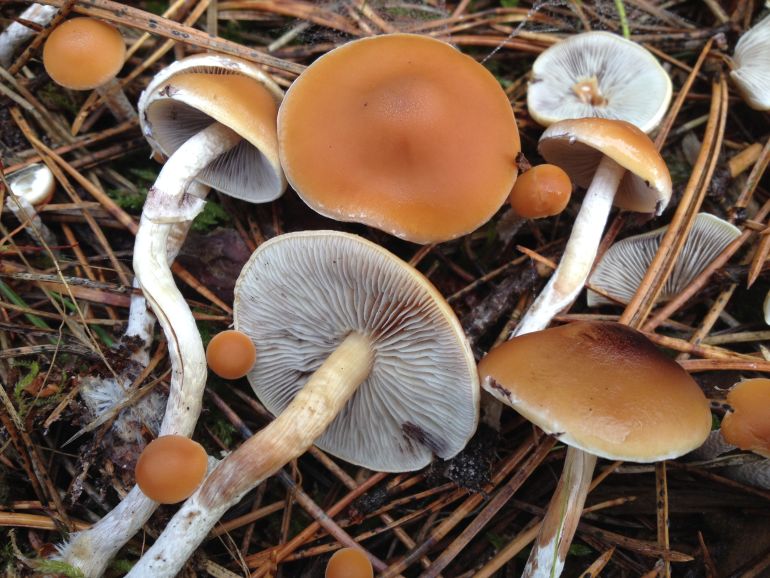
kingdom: Fungi
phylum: Basidiomycota
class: Agaricomycetes
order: Agaricales
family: Strophariaceae
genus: Hypholoma
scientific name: Hypholoma marginatum
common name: enlig svovlhat
